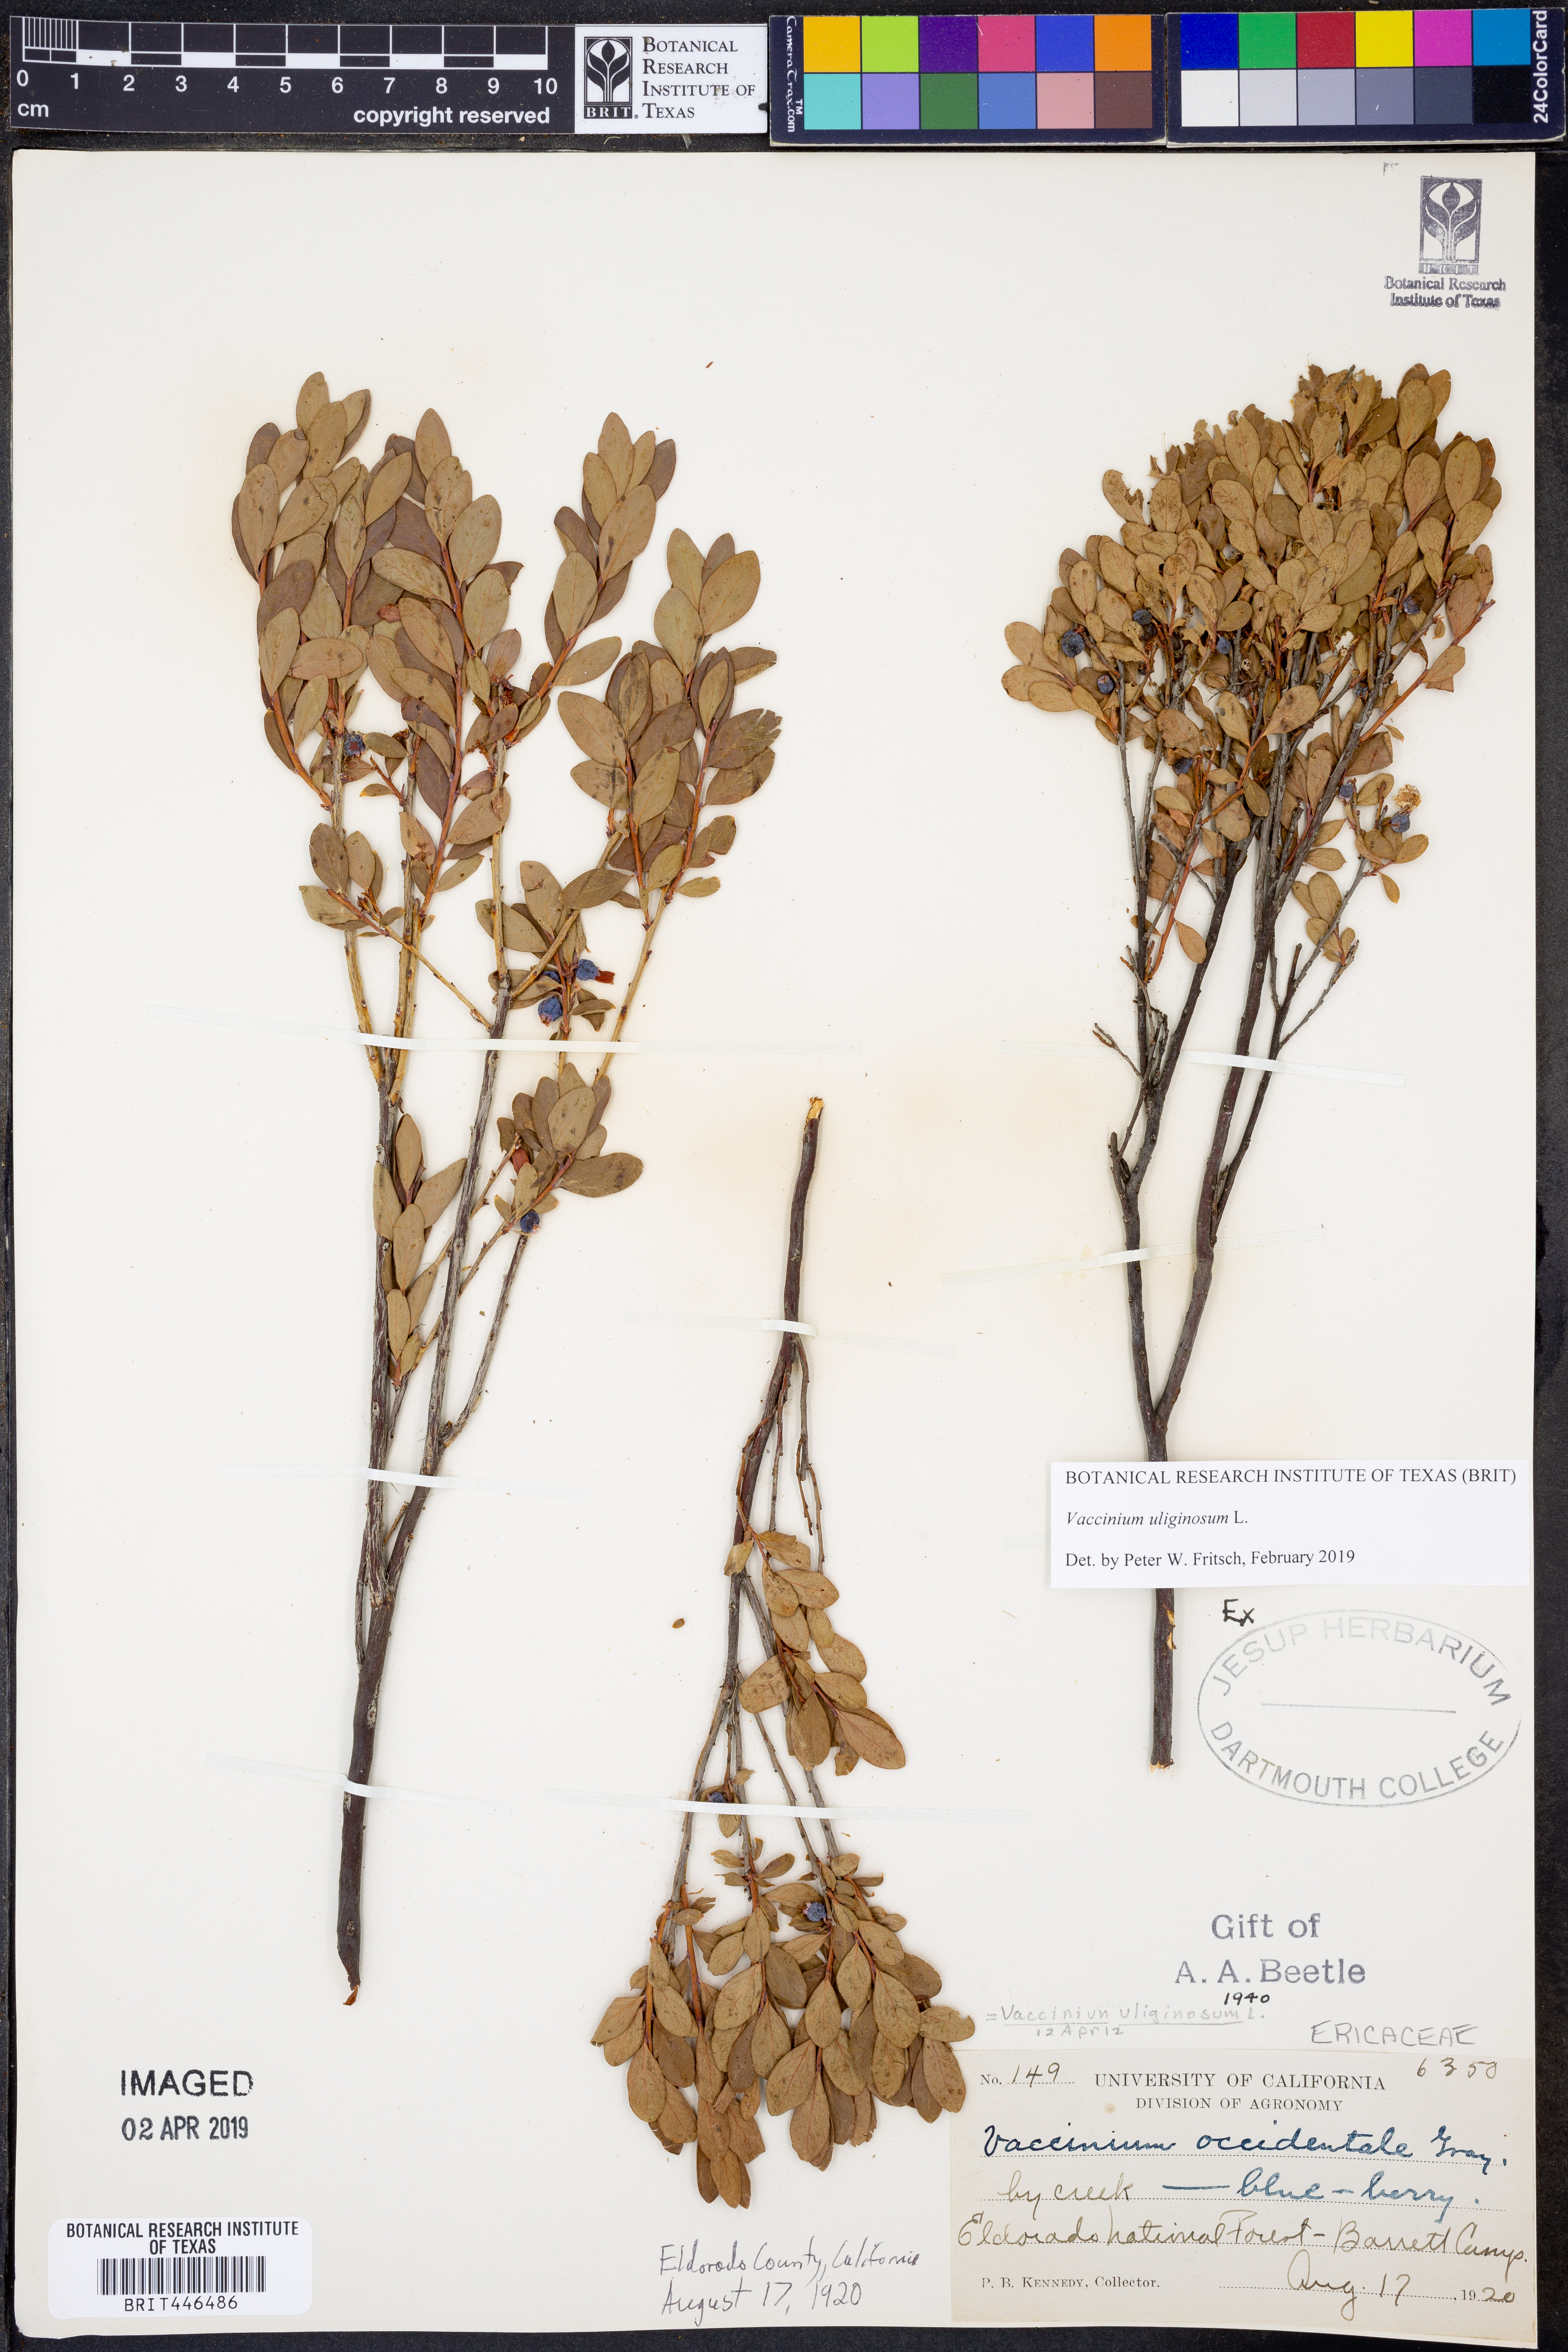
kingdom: Plantae
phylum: Tracheophyta
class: Magnoliopsida
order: Ericales
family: Ericaceae
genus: Vaccinium
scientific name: Vaccinium uliginosum
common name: Bog bilberry
